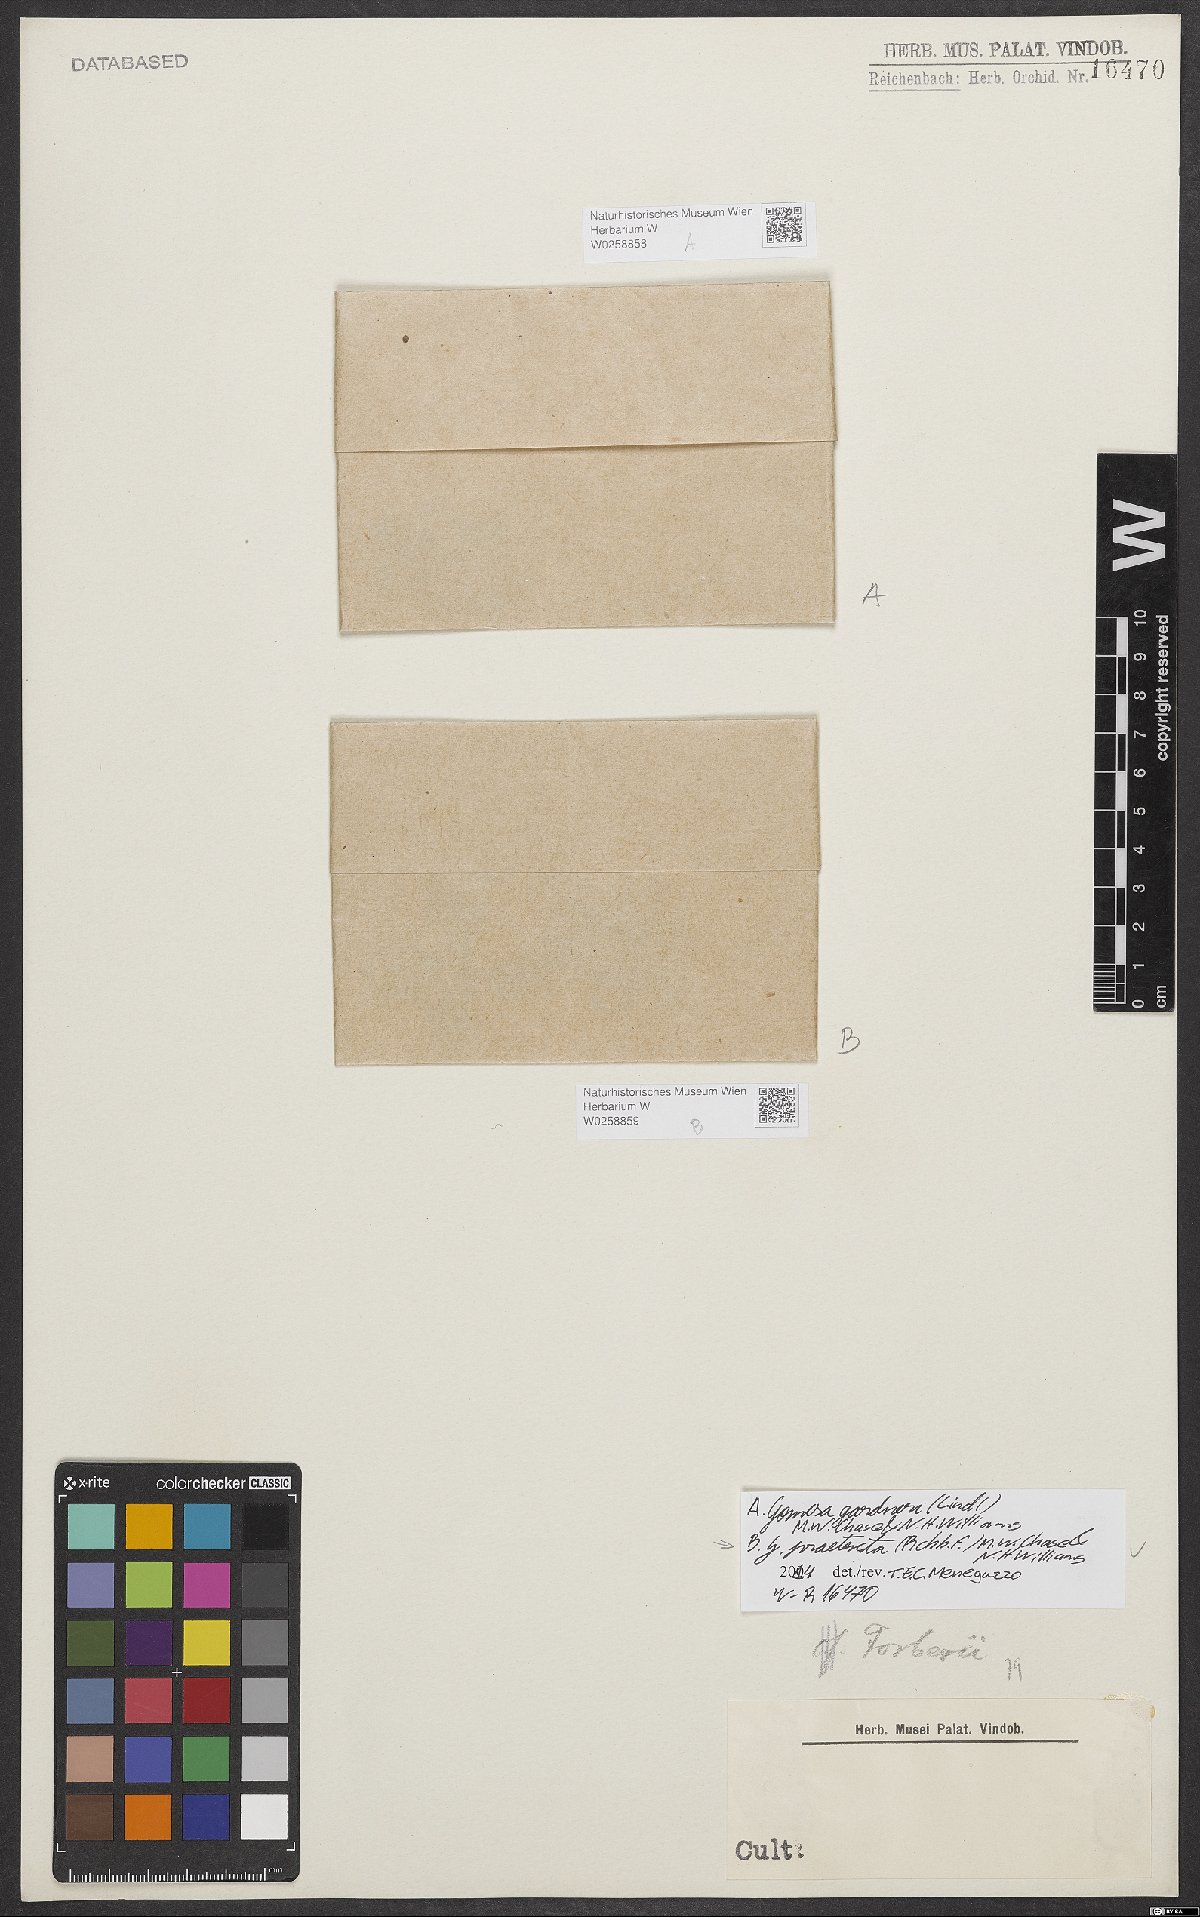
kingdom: Plantae
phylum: Tracheophyta
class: Liliopsida
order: Asparagales
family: Orchidaceae
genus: Gomesa
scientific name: Gomesa gardneri
